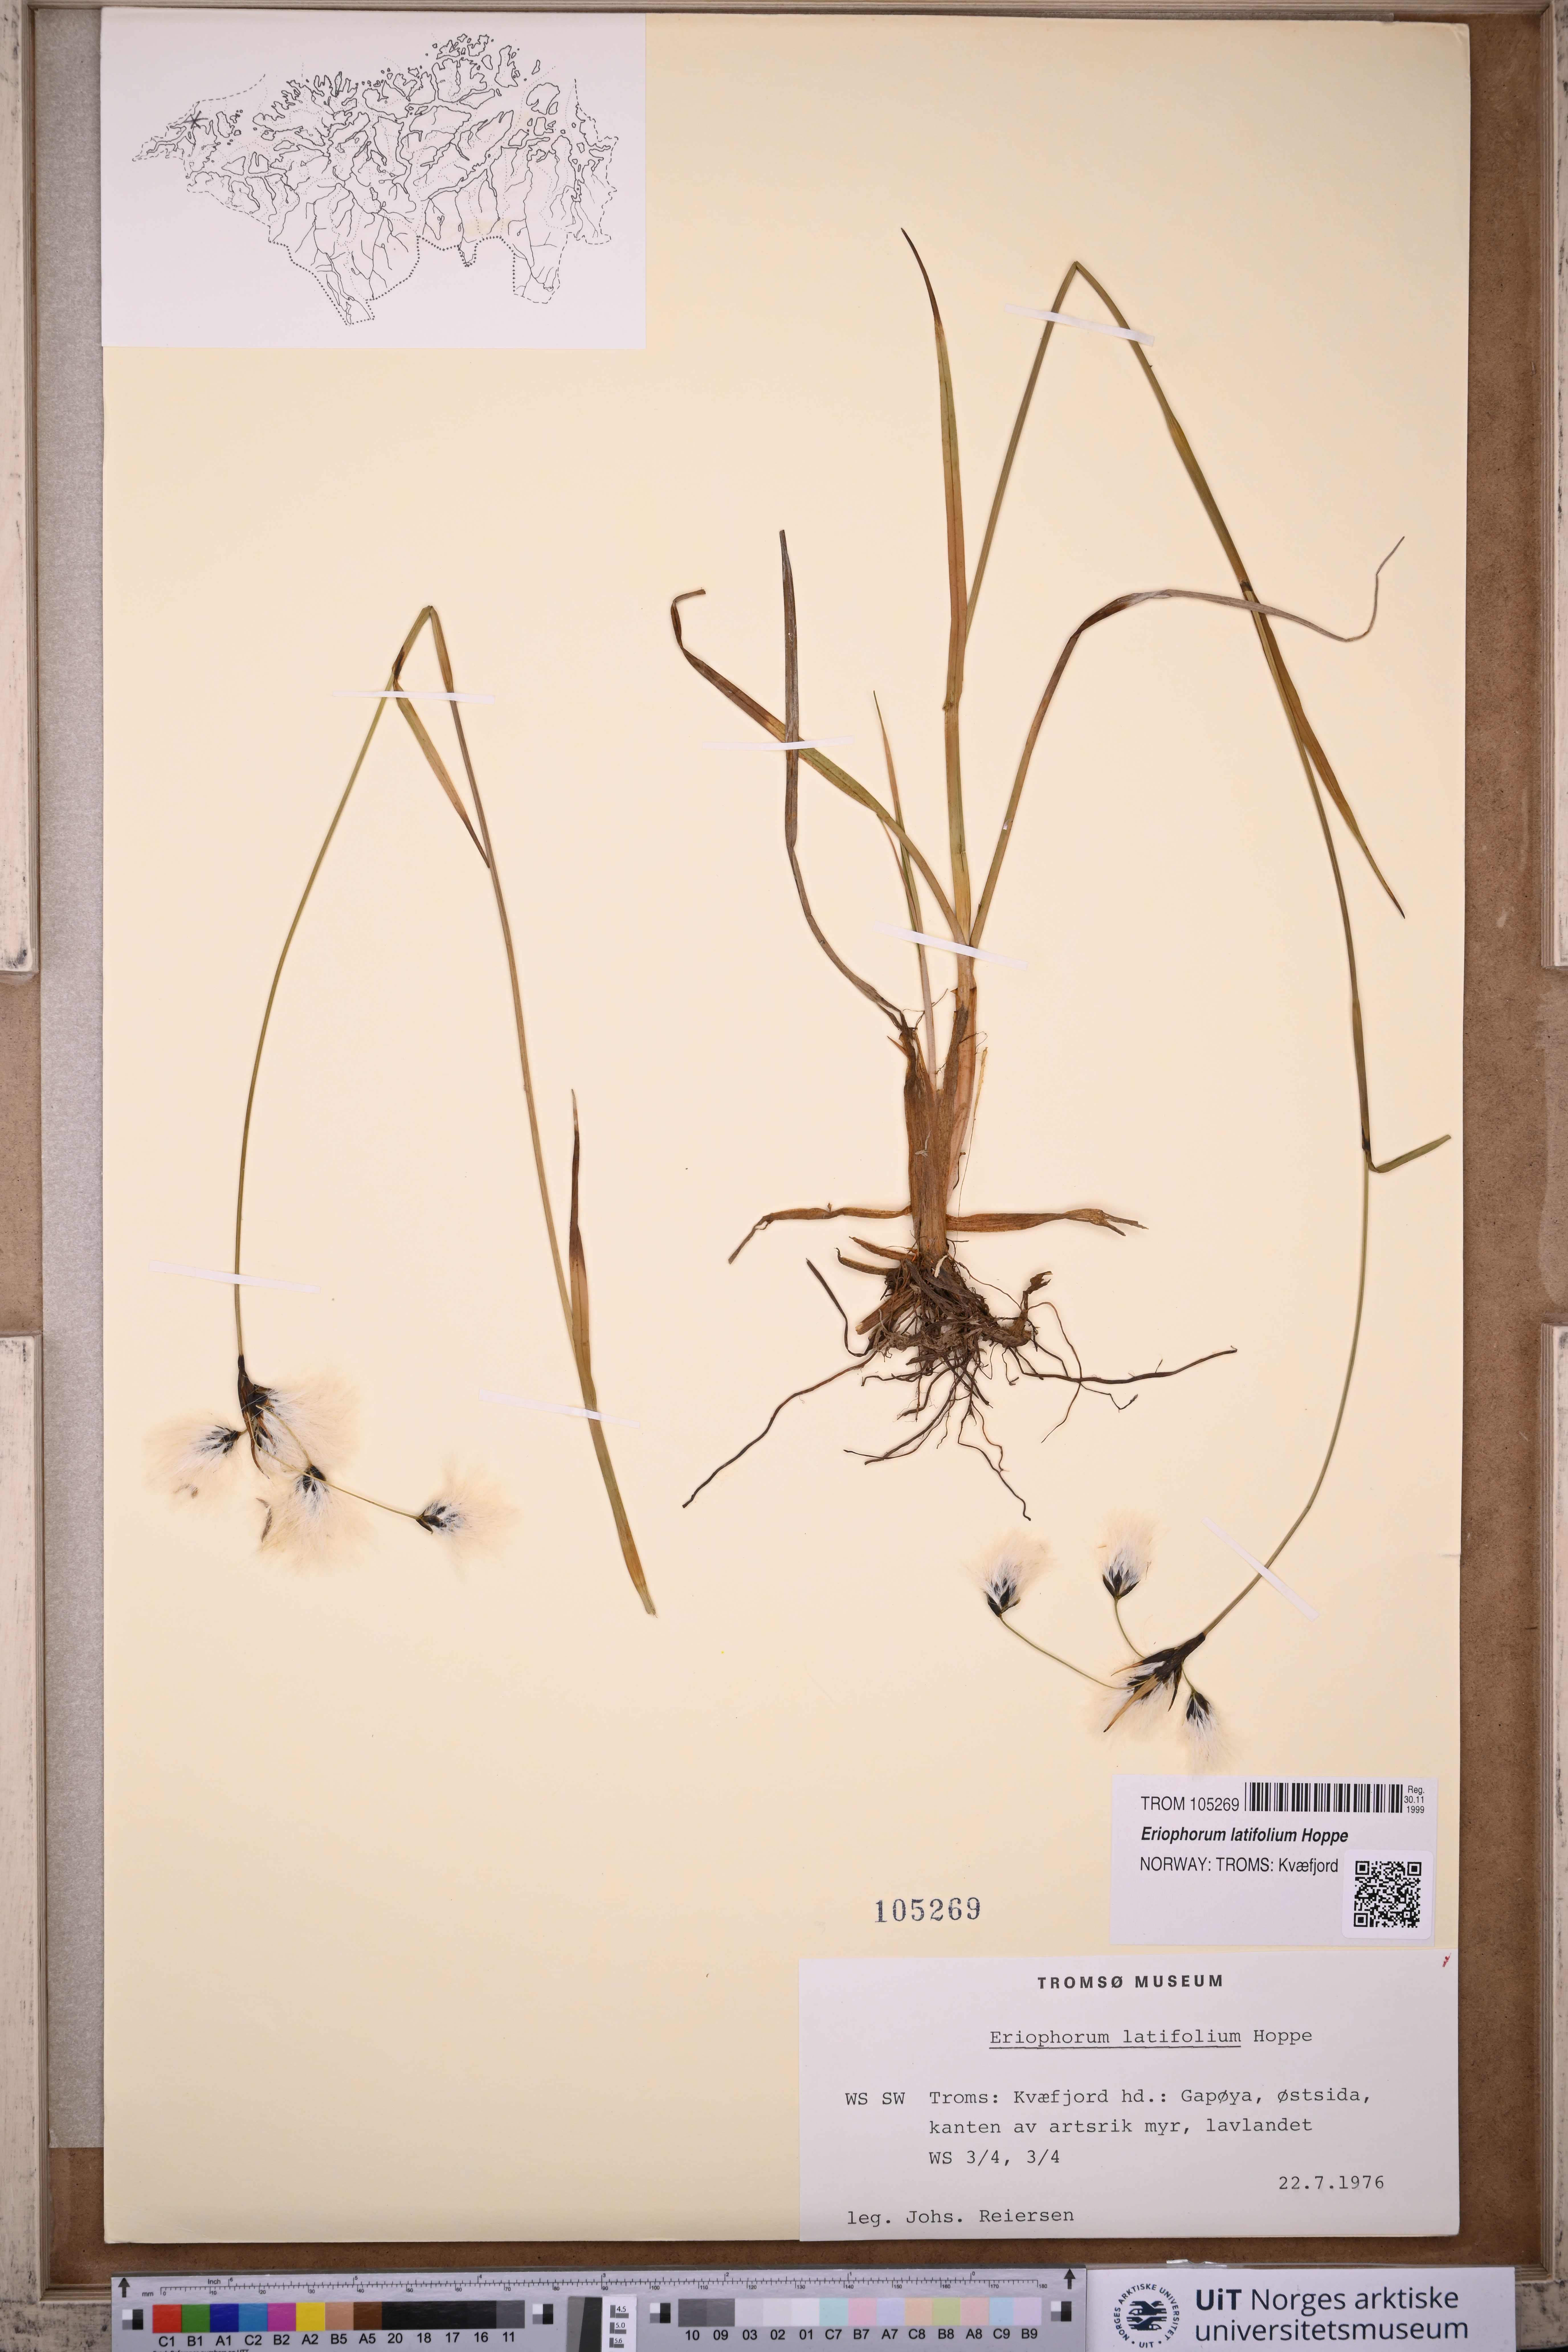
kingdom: Plantae
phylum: Tracheophyta
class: Liliopsida
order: Poales
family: Cyperaceae
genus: Eriophorum
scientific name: Eriophorum latifolium
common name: Broad-leaved cottongrass
